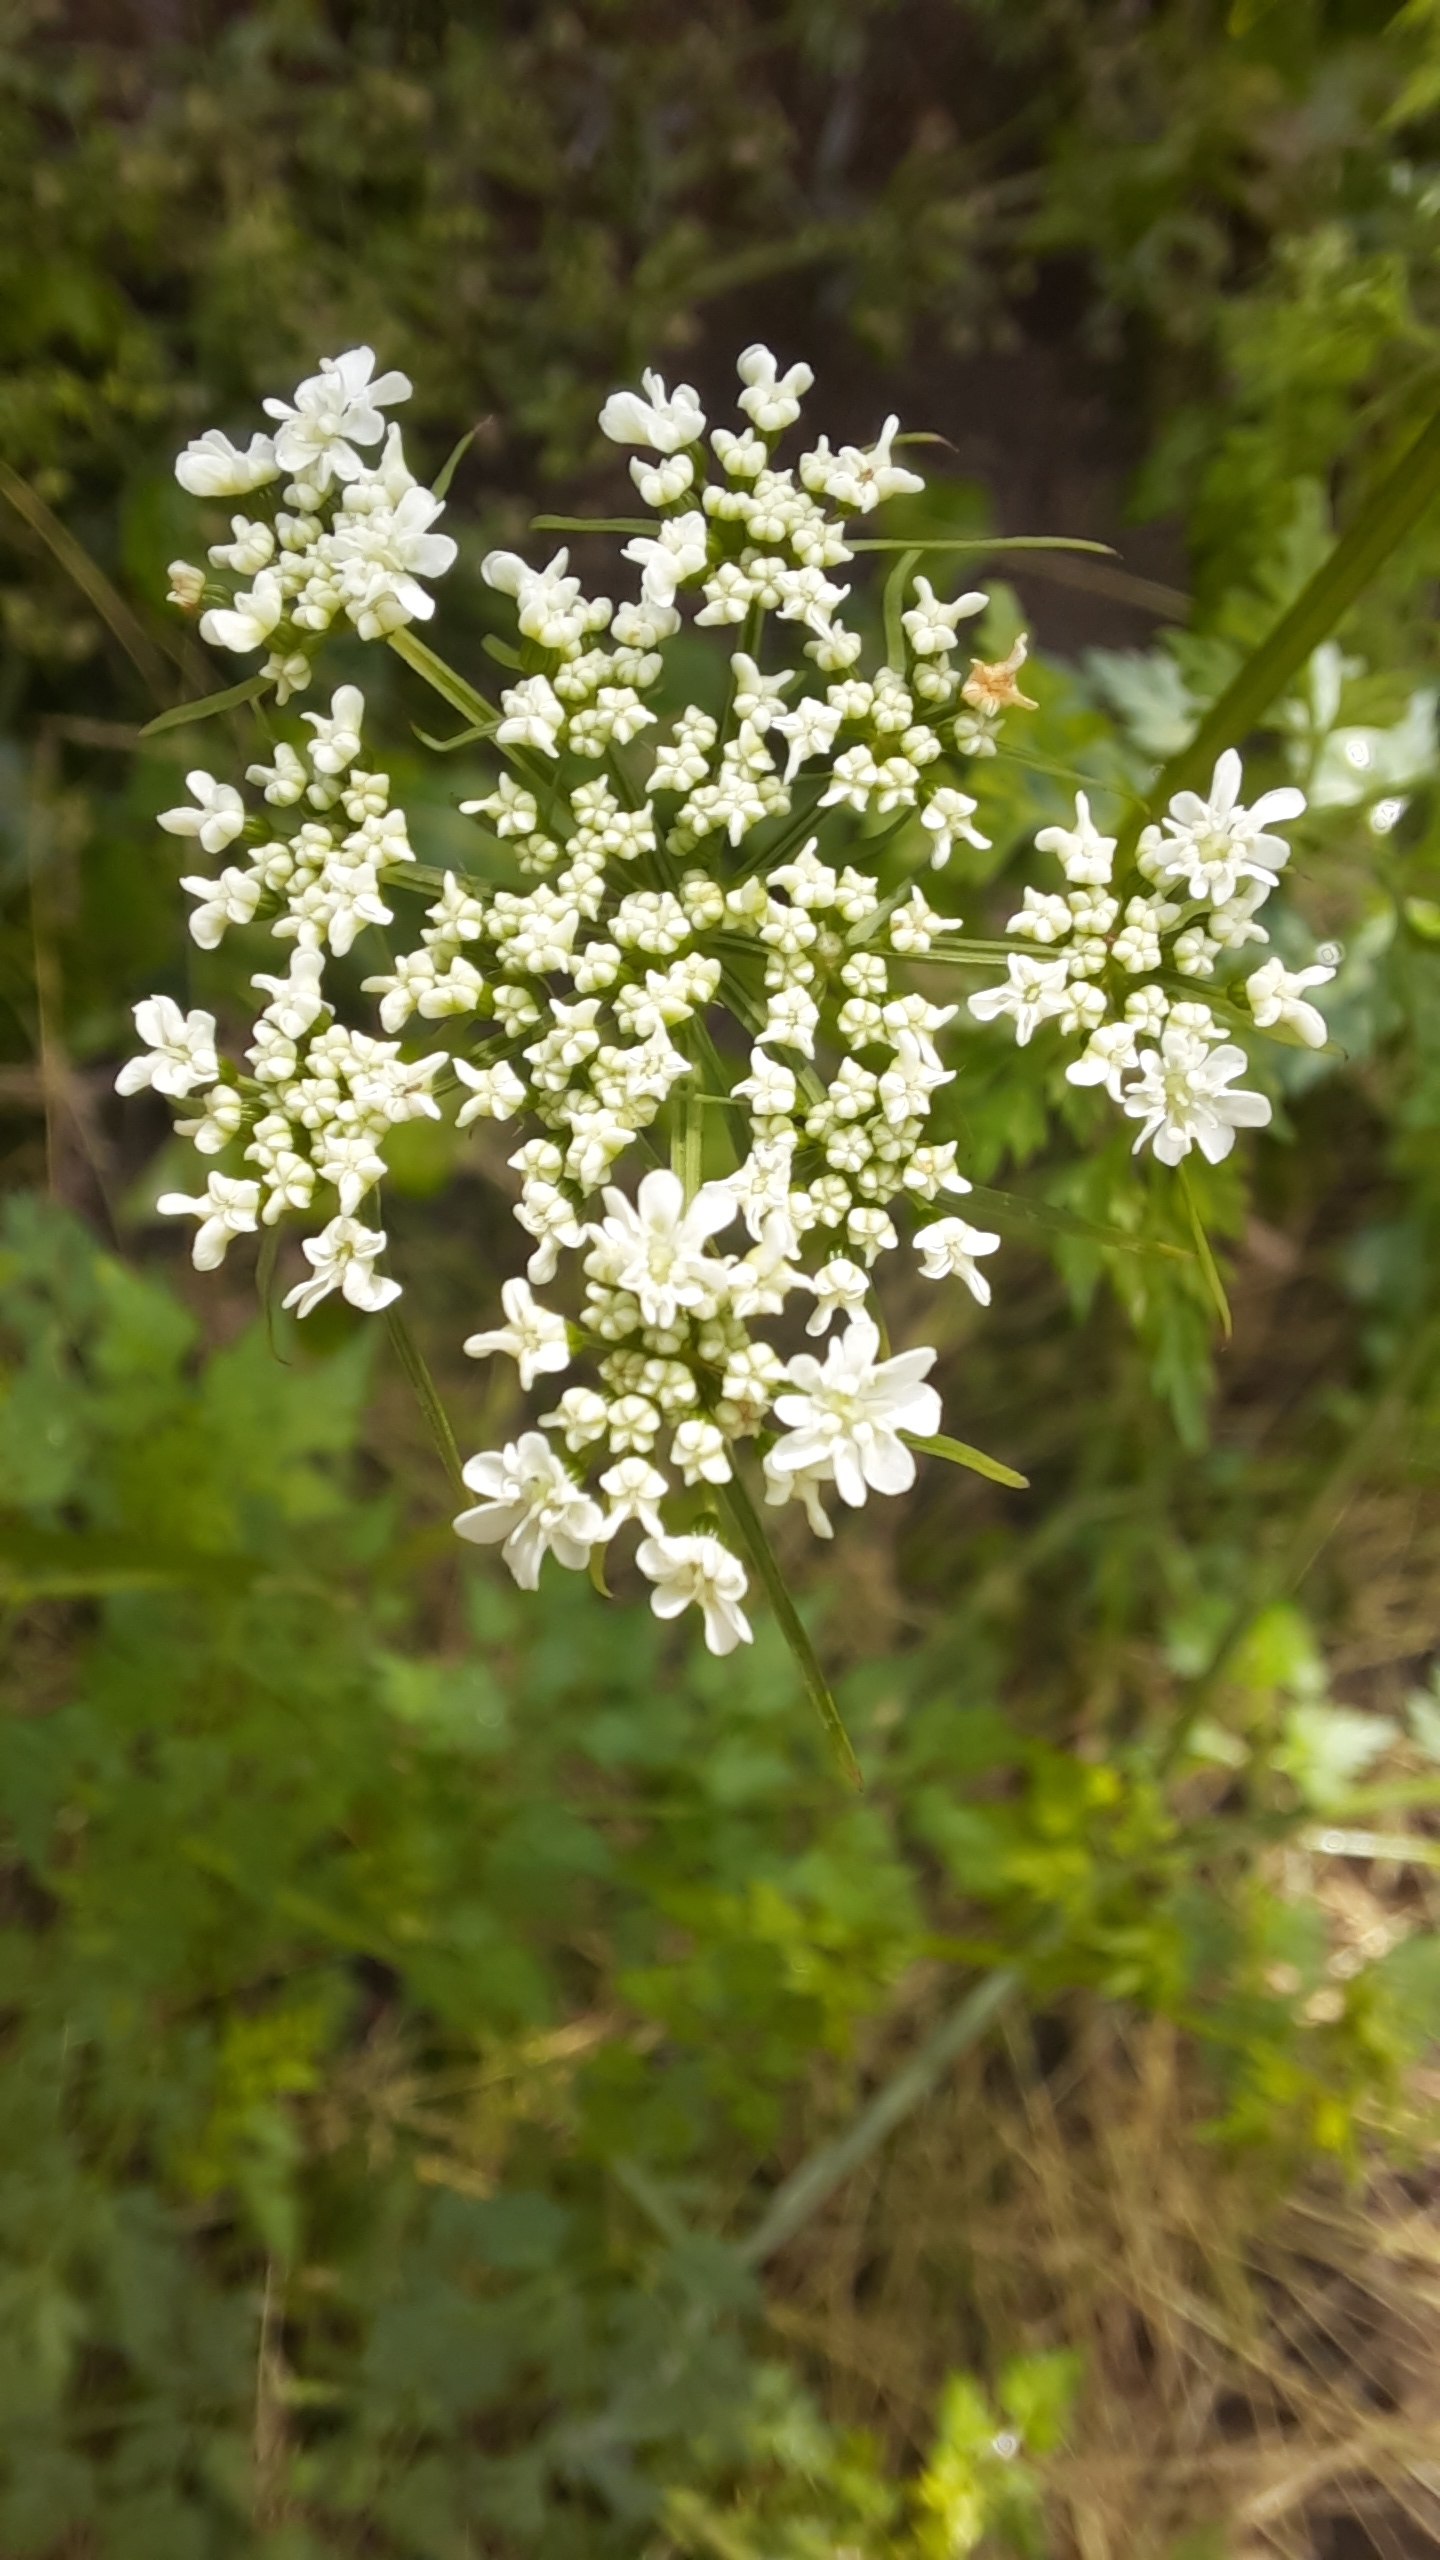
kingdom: Plantae
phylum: Tracheophyta
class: Magnoliopsida
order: Apiales
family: Apiaceae
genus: Aethusa
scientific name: Aethusa cynapium
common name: Hundepersille
